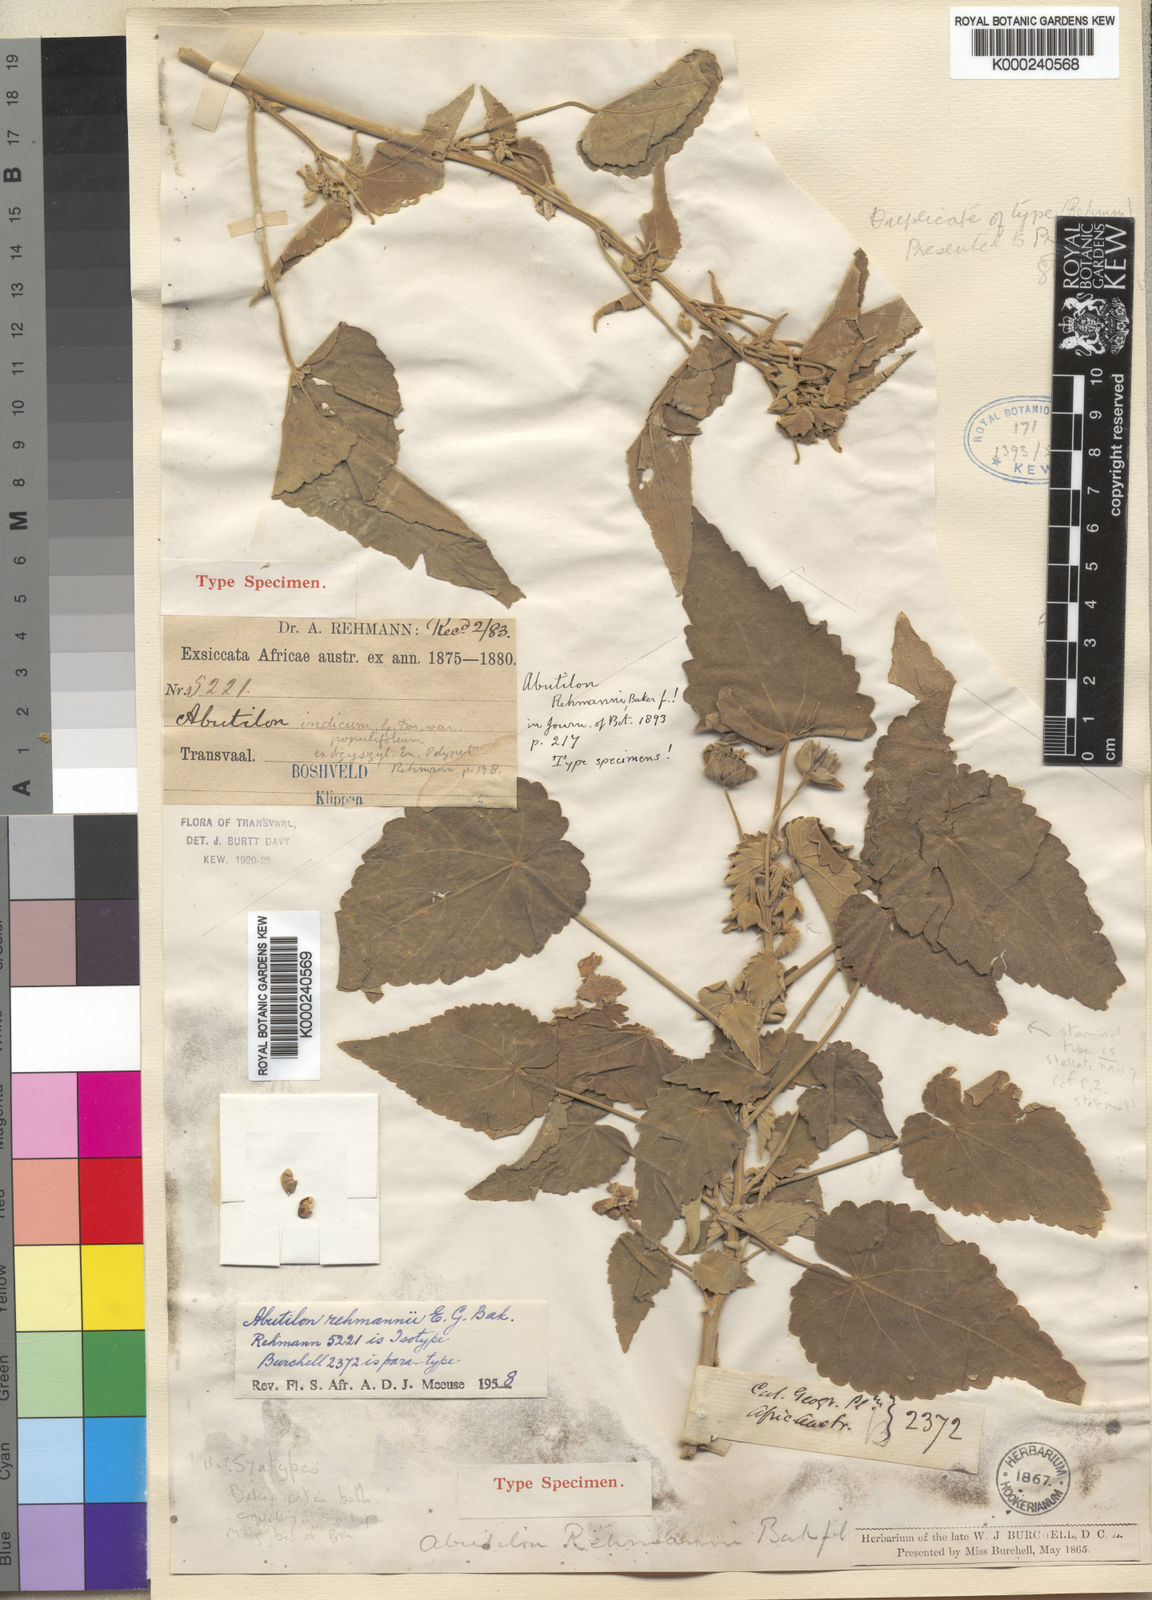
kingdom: Plantae
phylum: Tracheophyta
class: Magnoliopsida
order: Malvales
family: Malvaceae
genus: Abutilon
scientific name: Abutilon rehmannii
